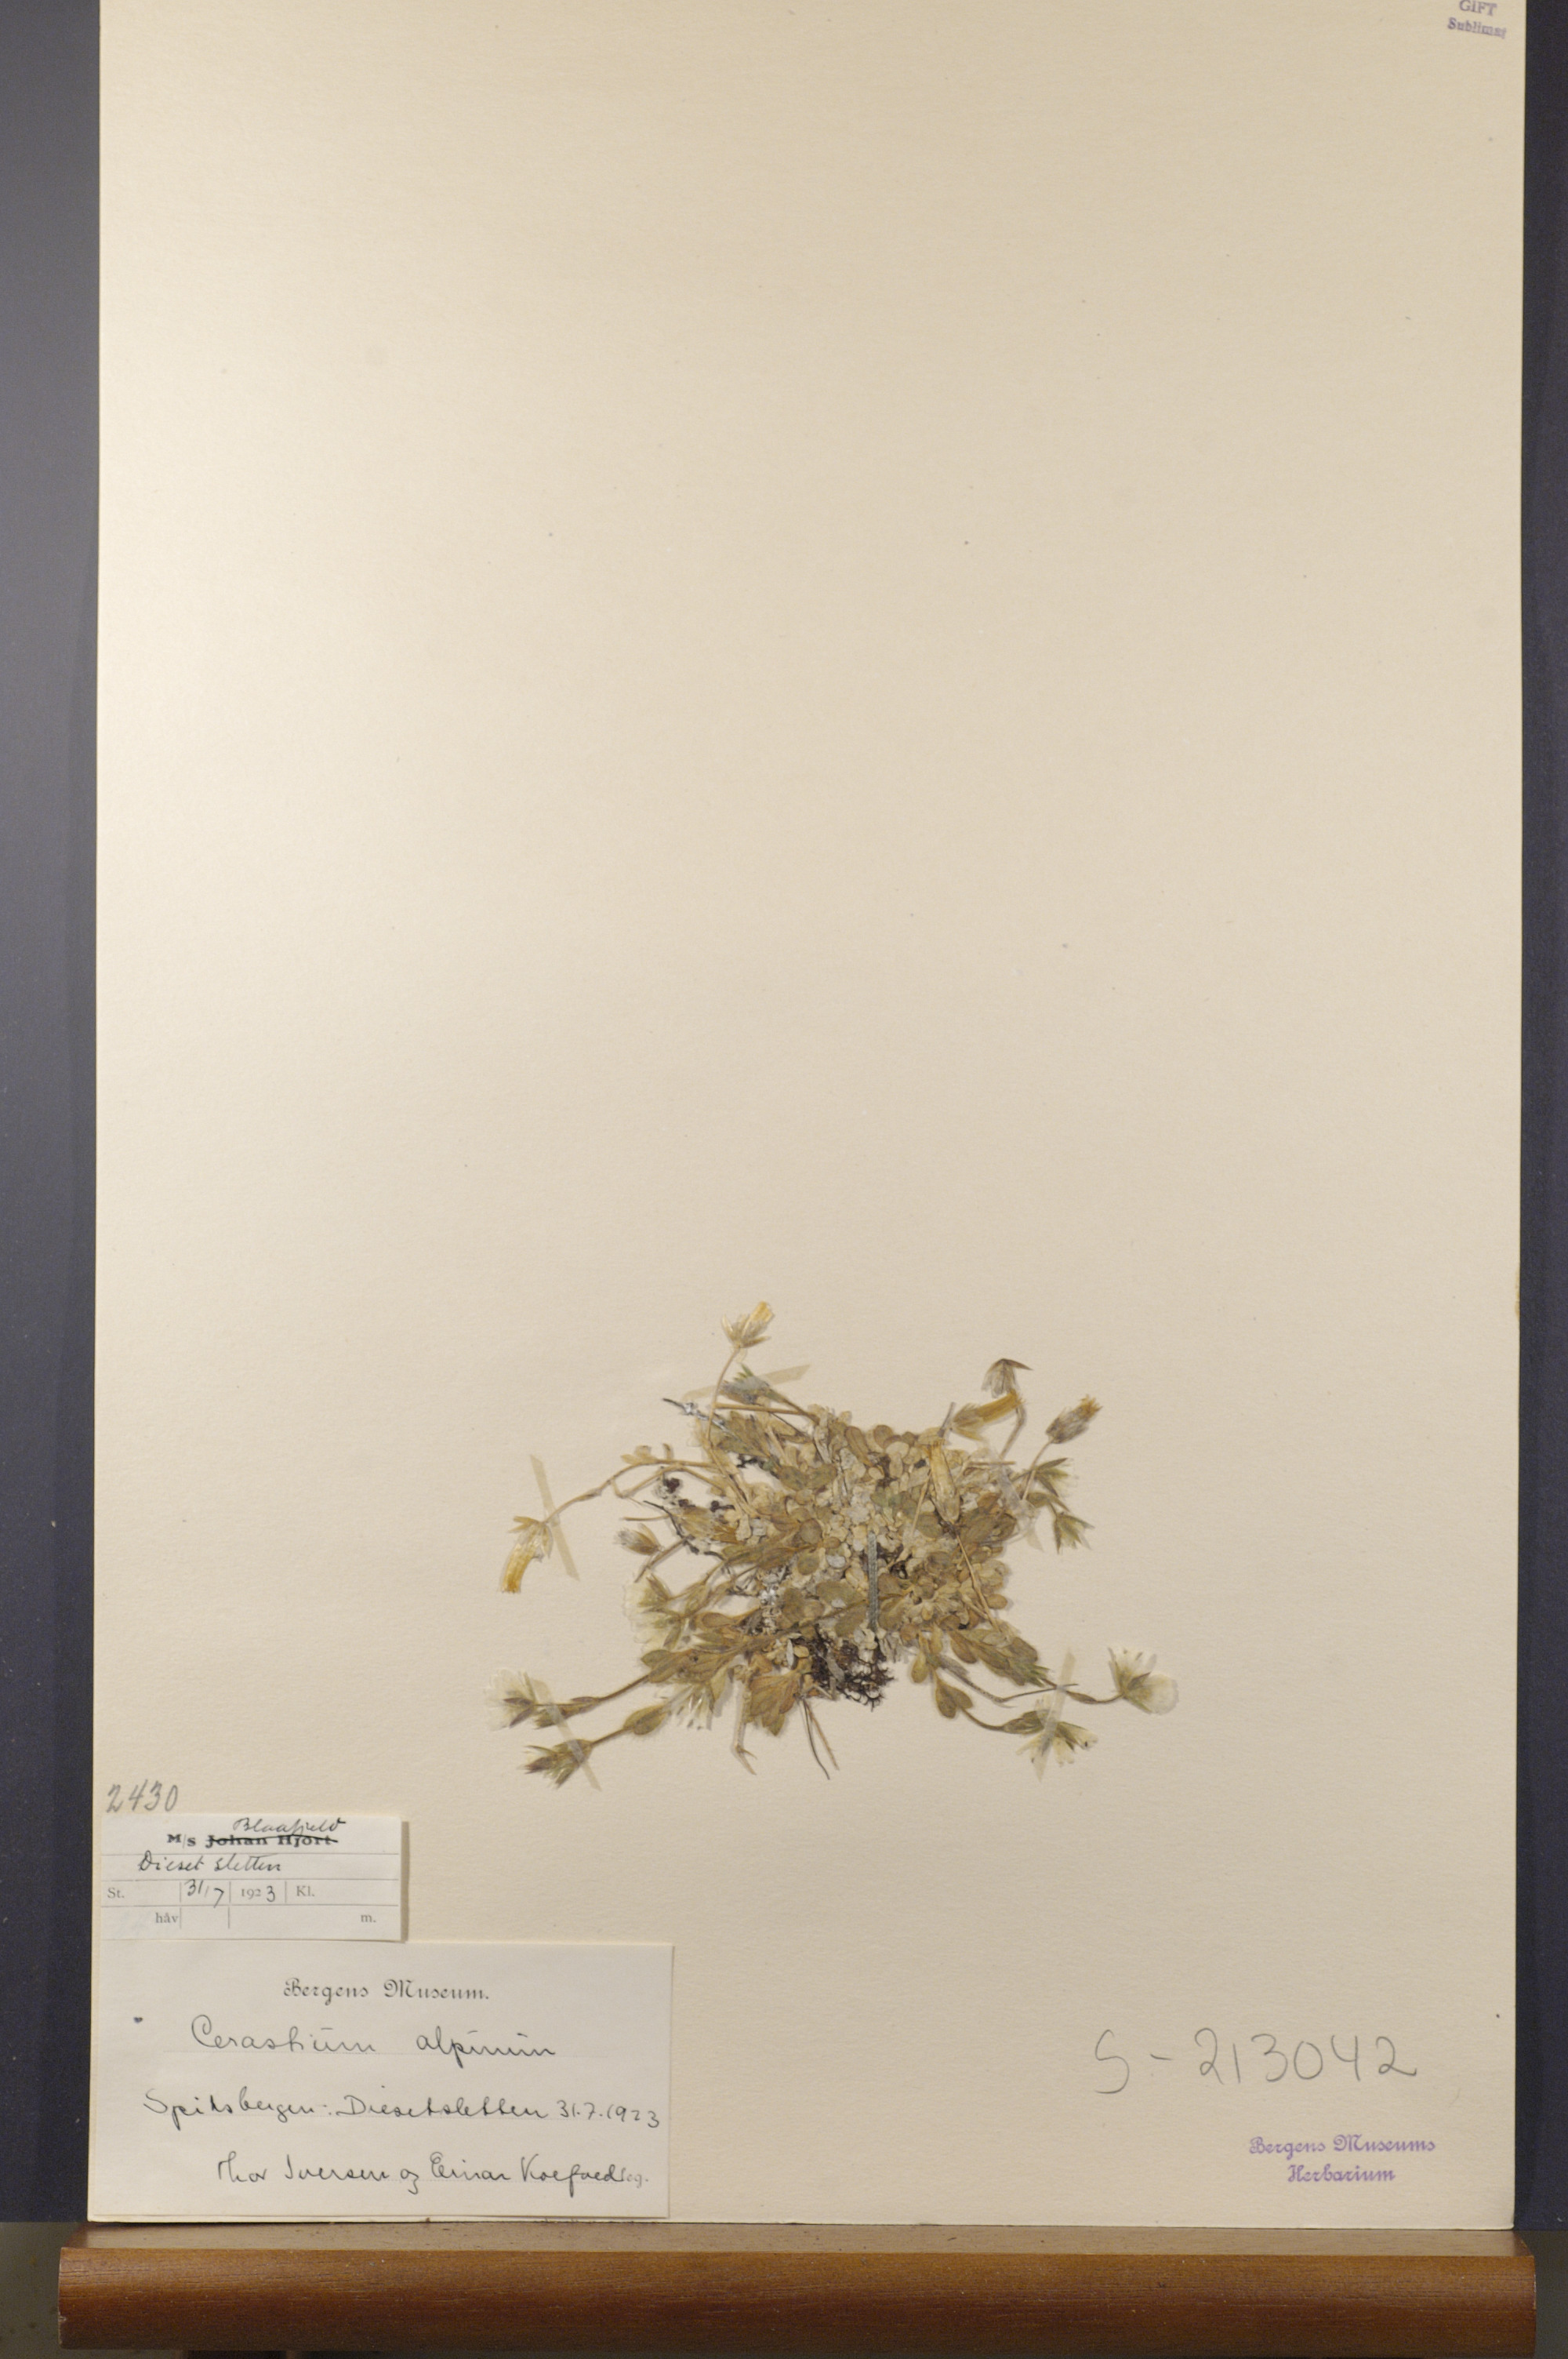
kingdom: Plantae
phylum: Tracheophyta
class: Magnoliopsida
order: Caryophyllales
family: Caryophyllaceae
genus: Cerastium
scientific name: Cerastium alpinum
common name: Alpine mouse-ear
